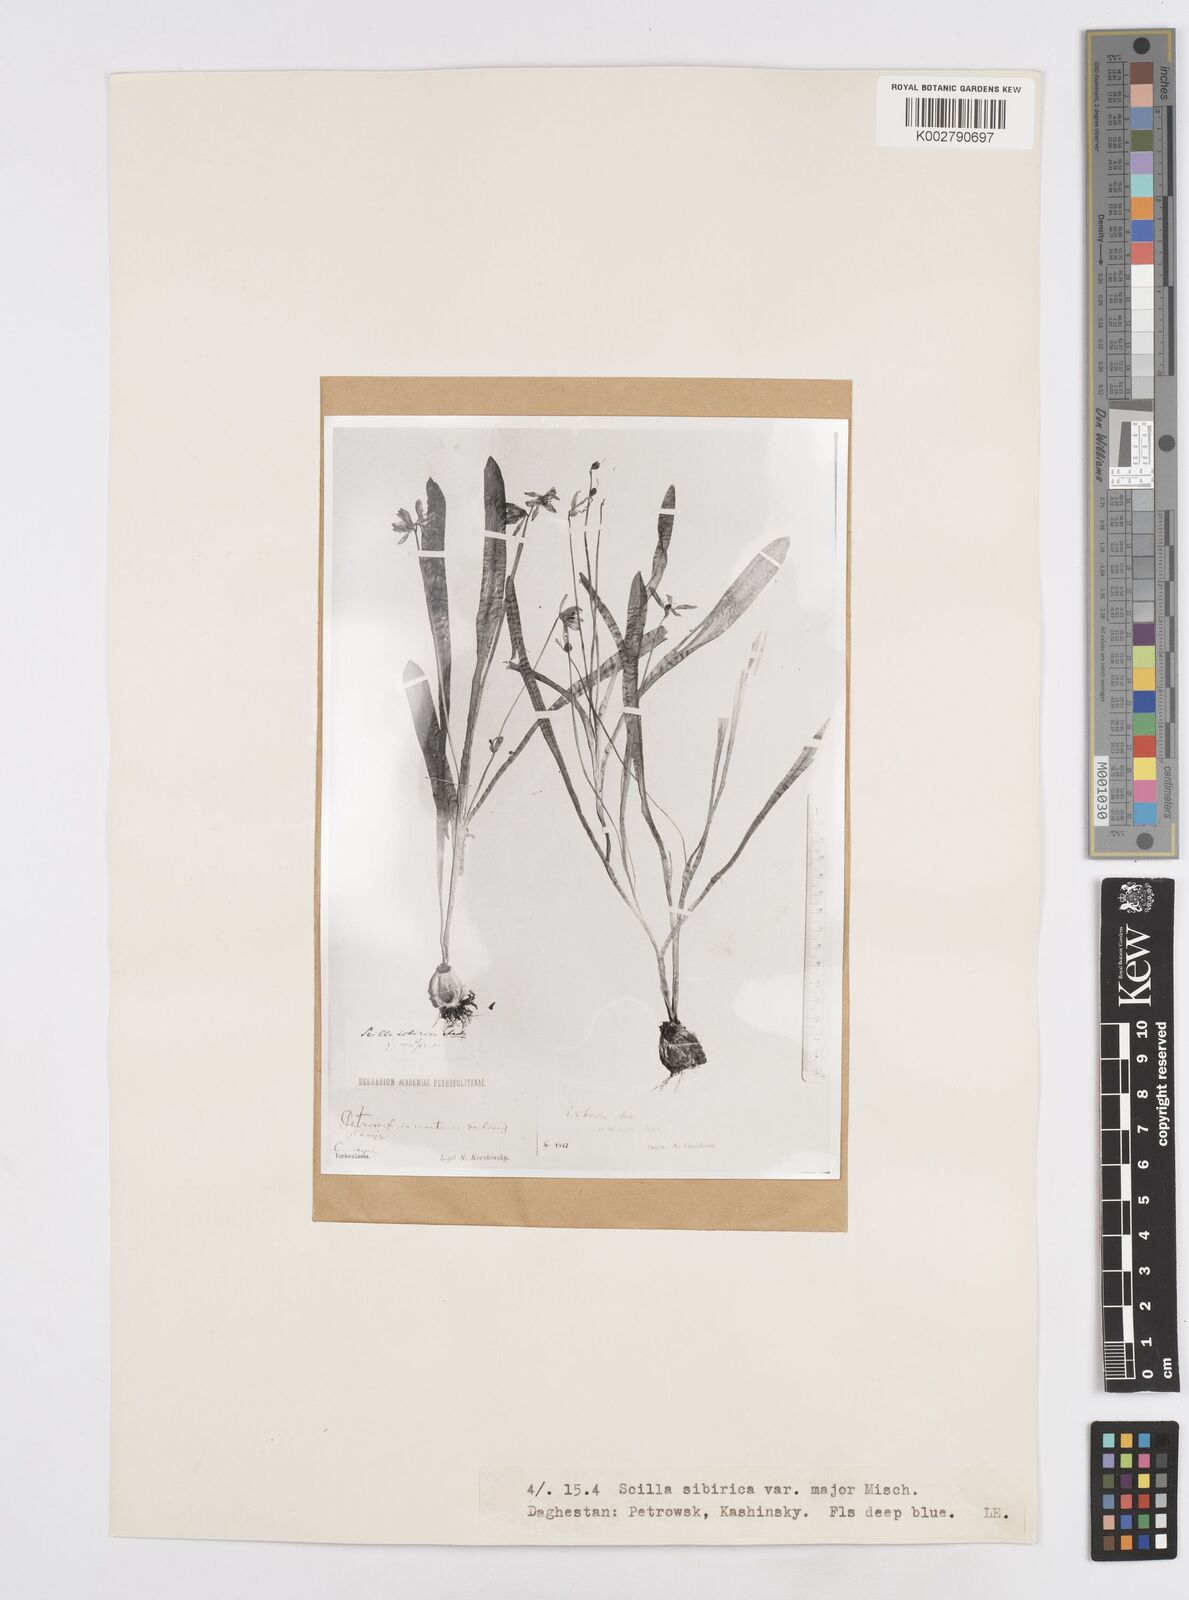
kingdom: Plantae
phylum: Tracheophyta
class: Liliopsida
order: Asparagales
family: Asparagaceae
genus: Scilla
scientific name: Scilla siberica
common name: Siberian squill
